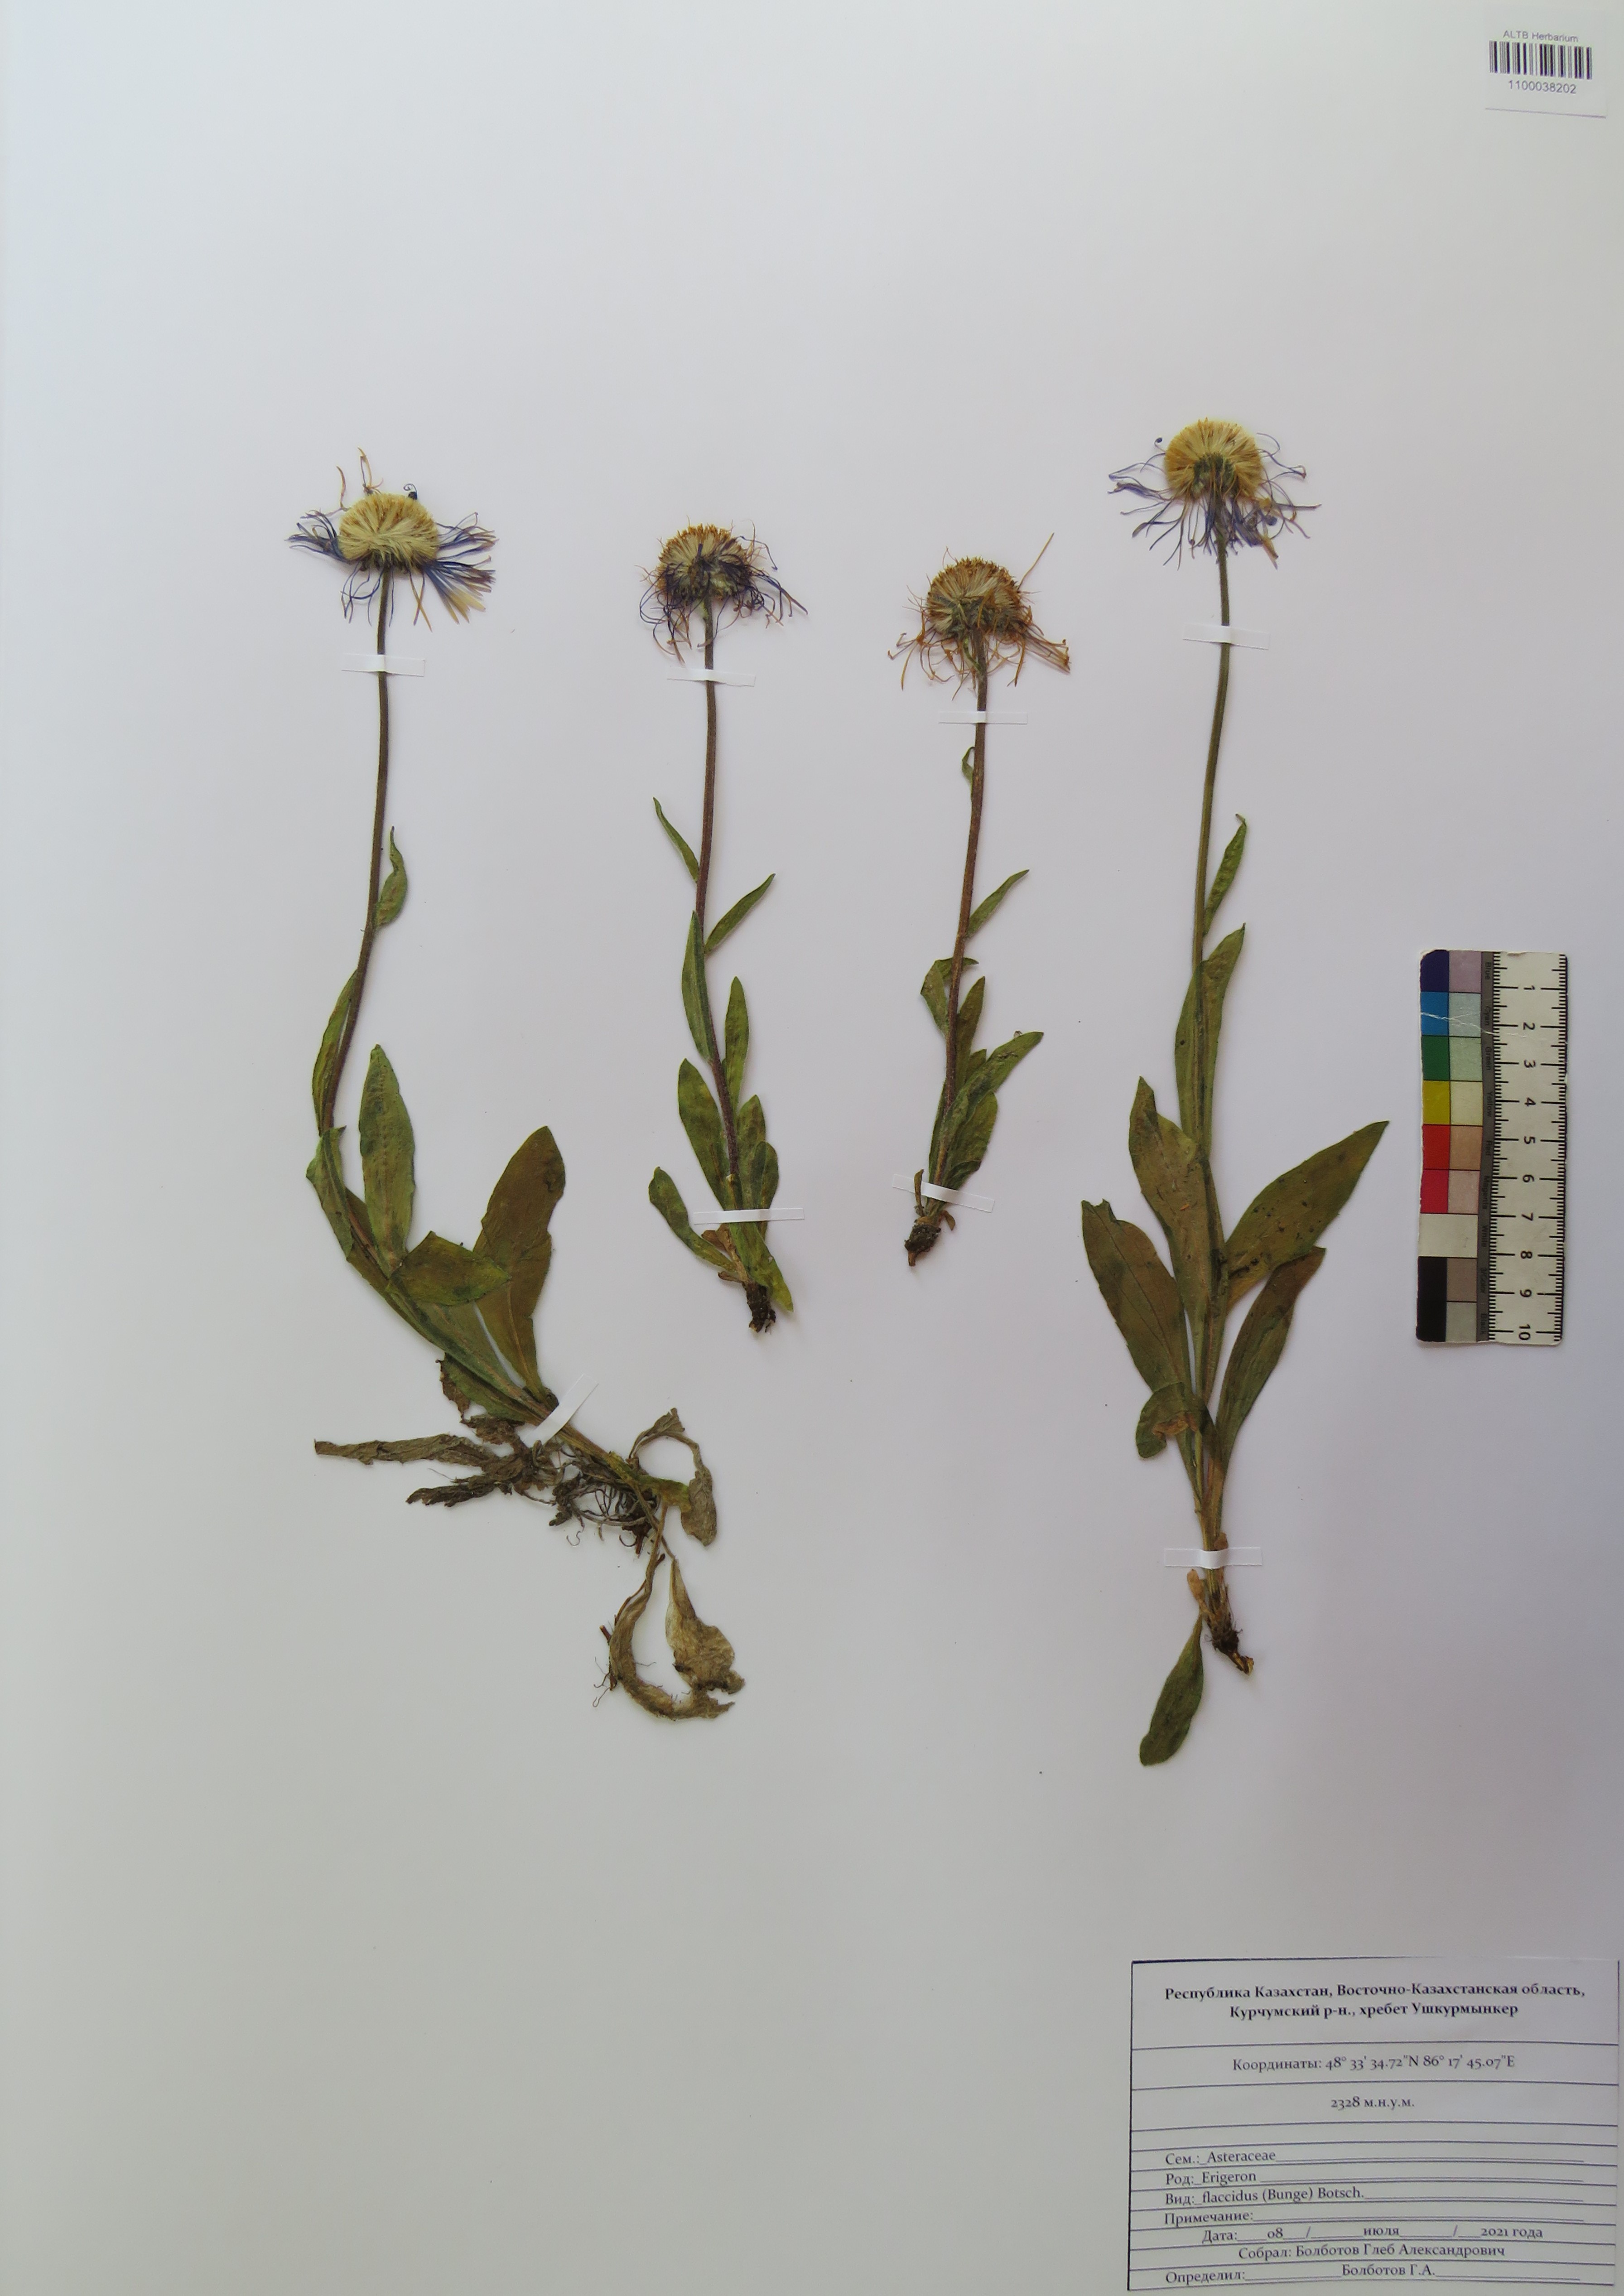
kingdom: Plantae
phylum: Tracheophyta
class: Magnoliopsida
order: Asterales
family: Asteraceae
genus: Tibetiodes
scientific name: Tibetiodes flaccida
